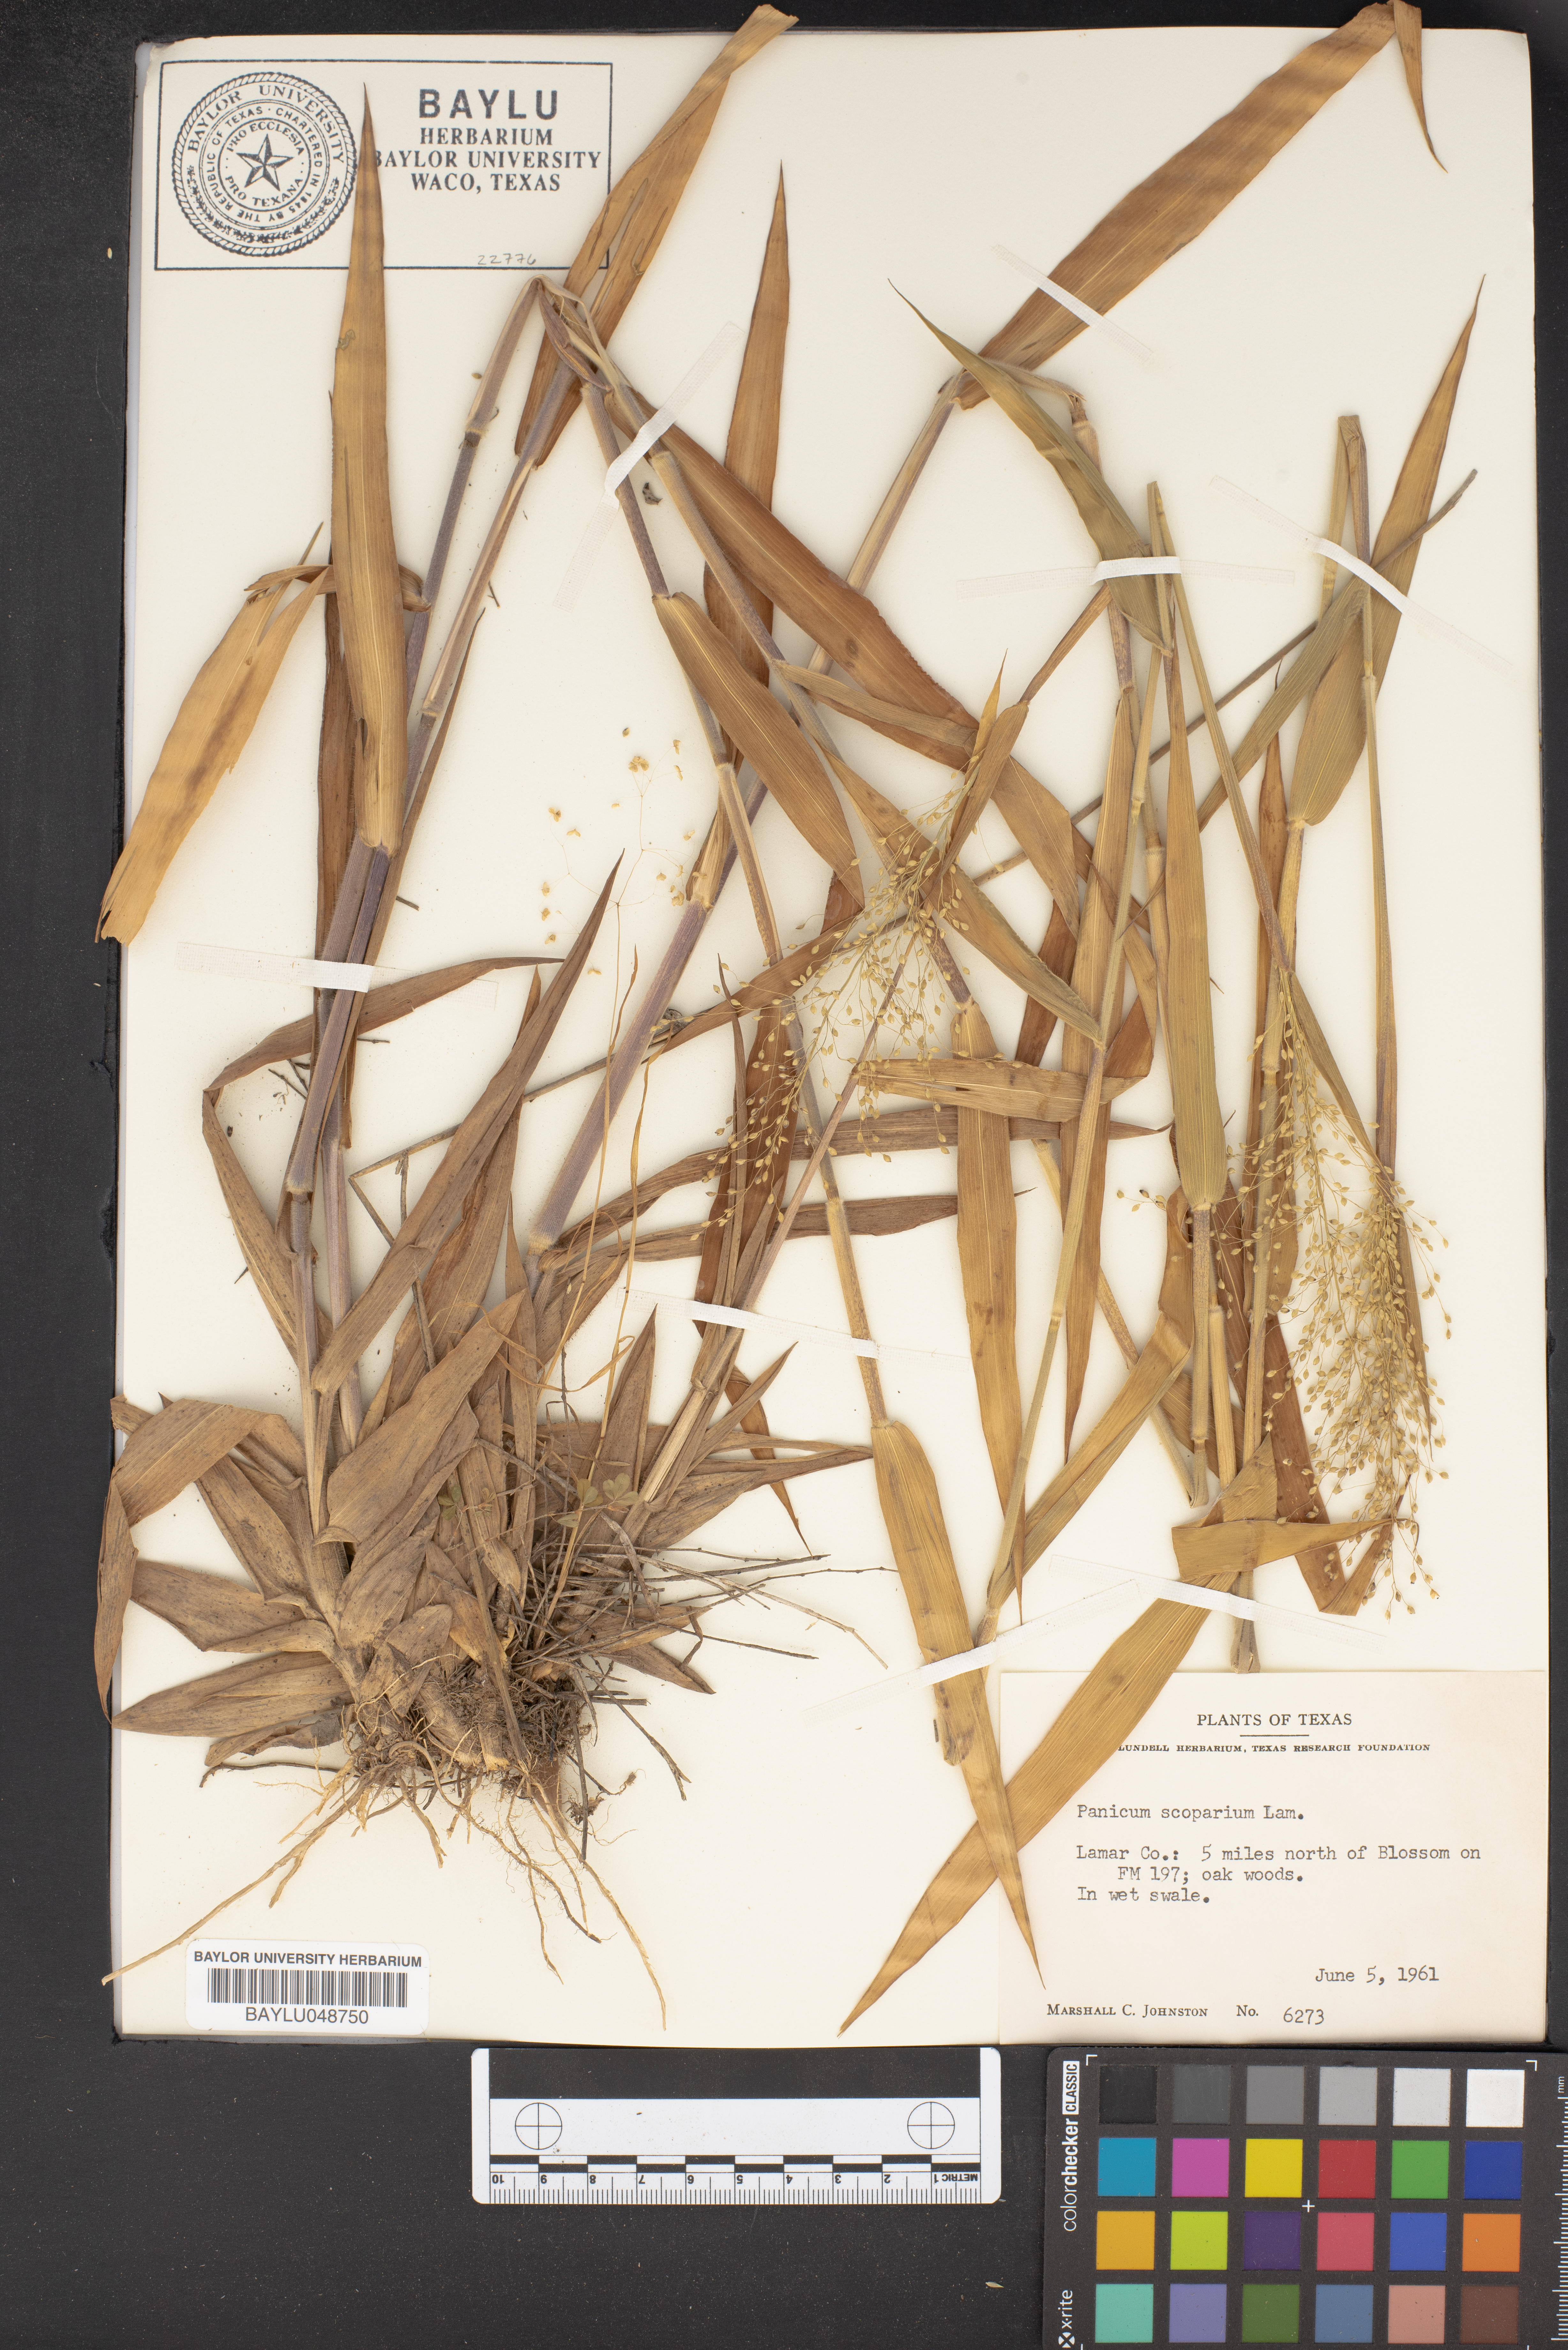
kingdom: Plantae
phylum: Tracheophyta
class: Liliopsida
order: Poales
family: Poaceae
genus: Dichanthelium
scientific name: Dichanthelium scribnerianum
